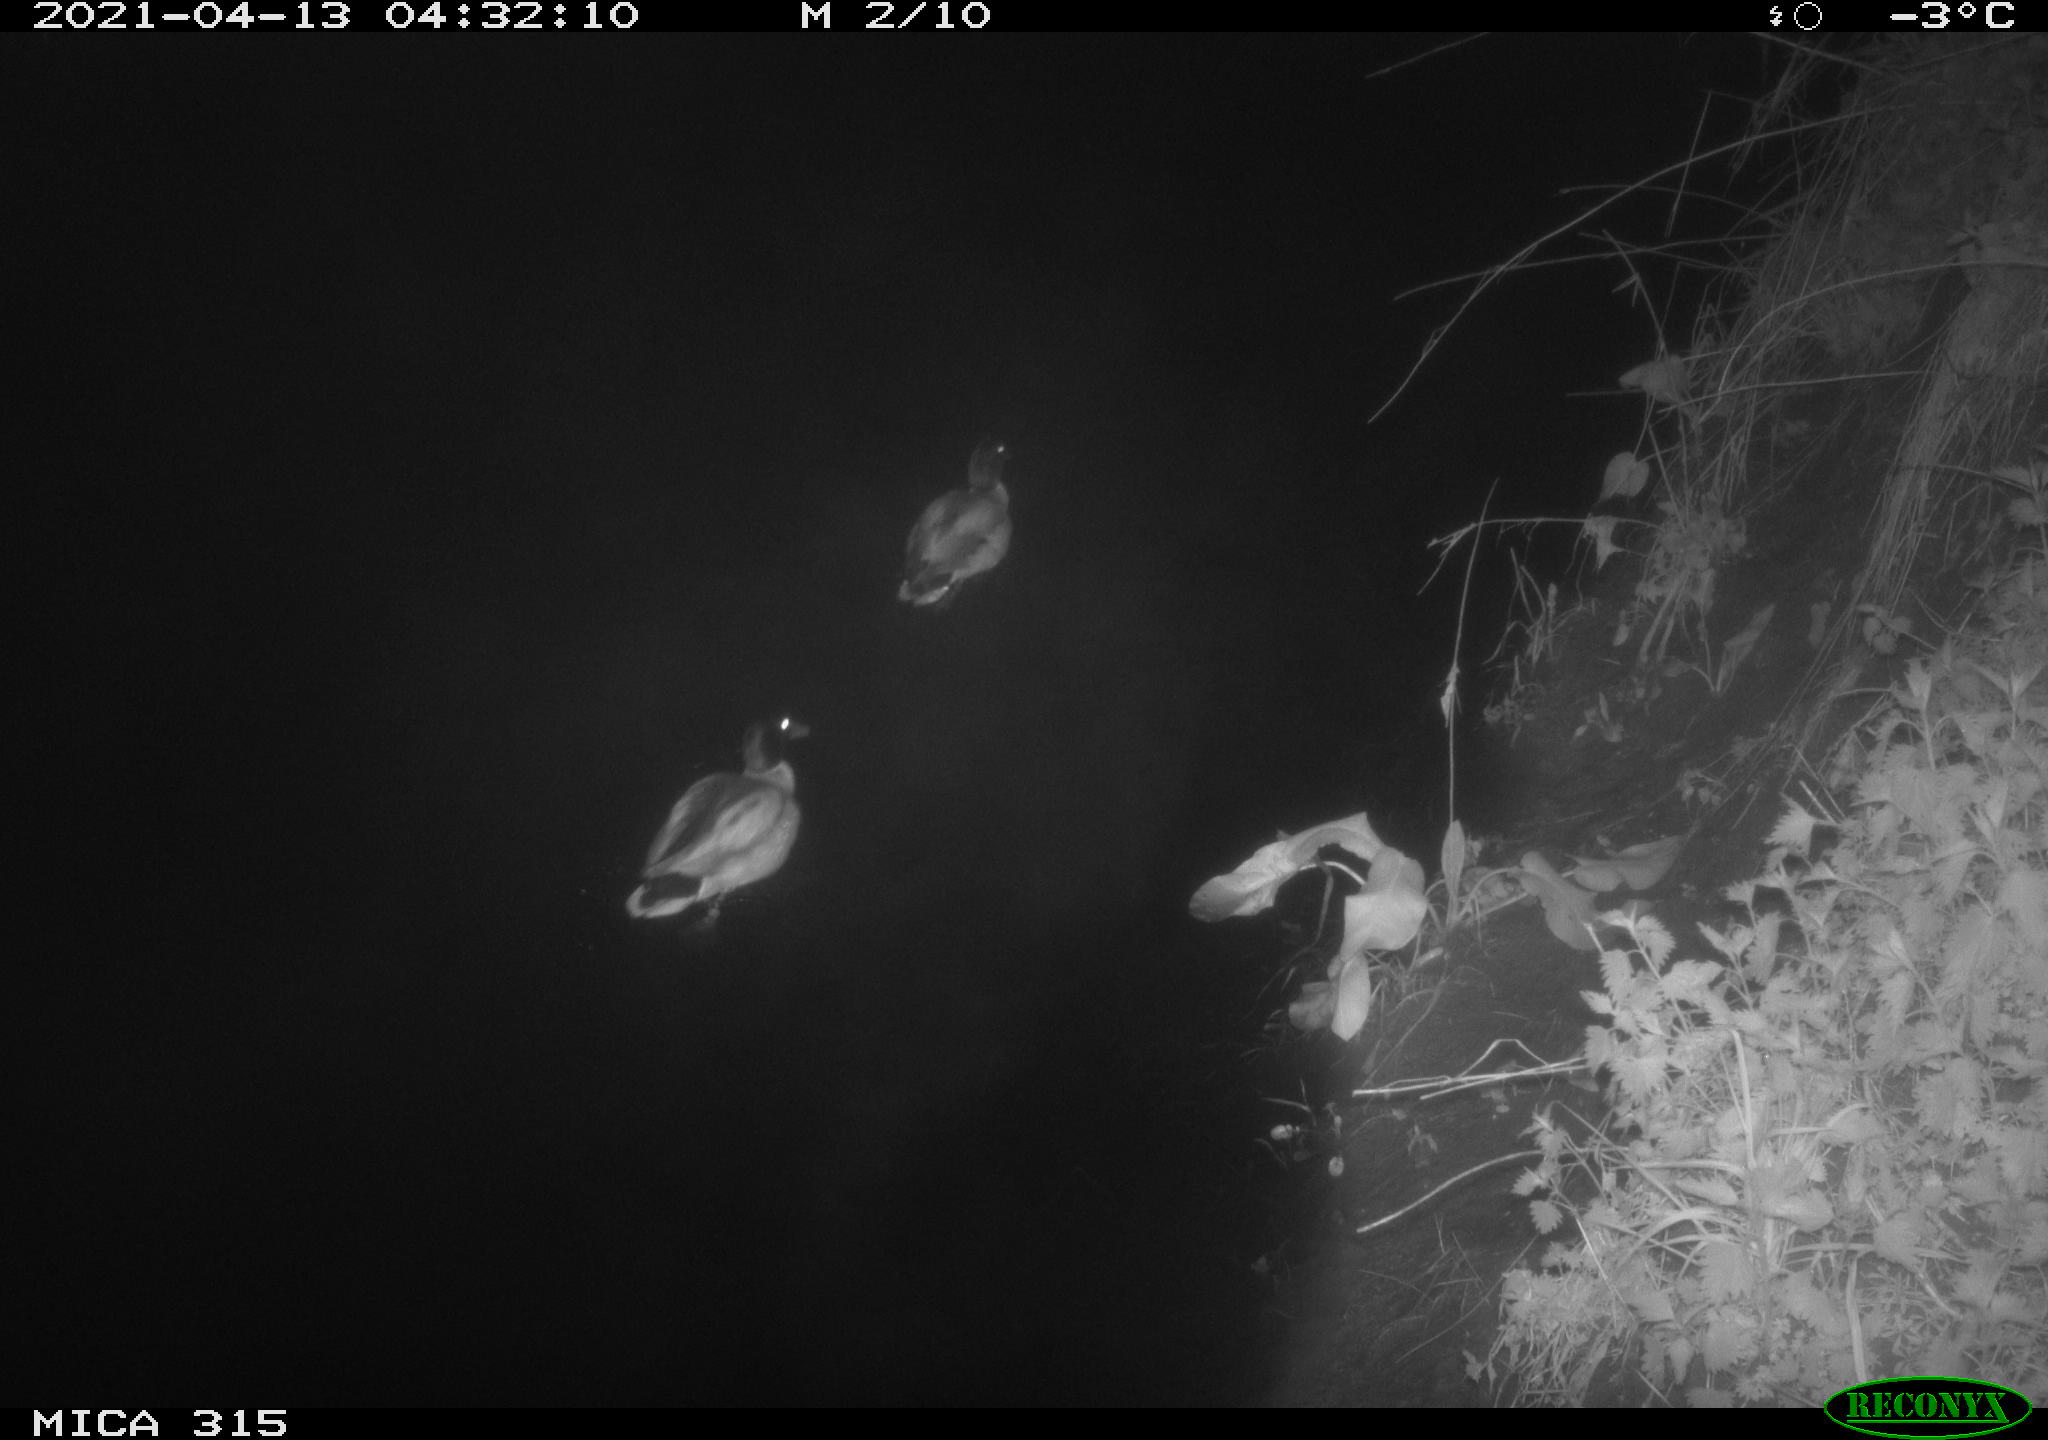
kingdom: Animalia
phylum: Chordata
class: Aves
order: Anseriformes
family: Anatidae
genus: Anas
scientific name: Anas platyrhynchos
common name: Mallard
